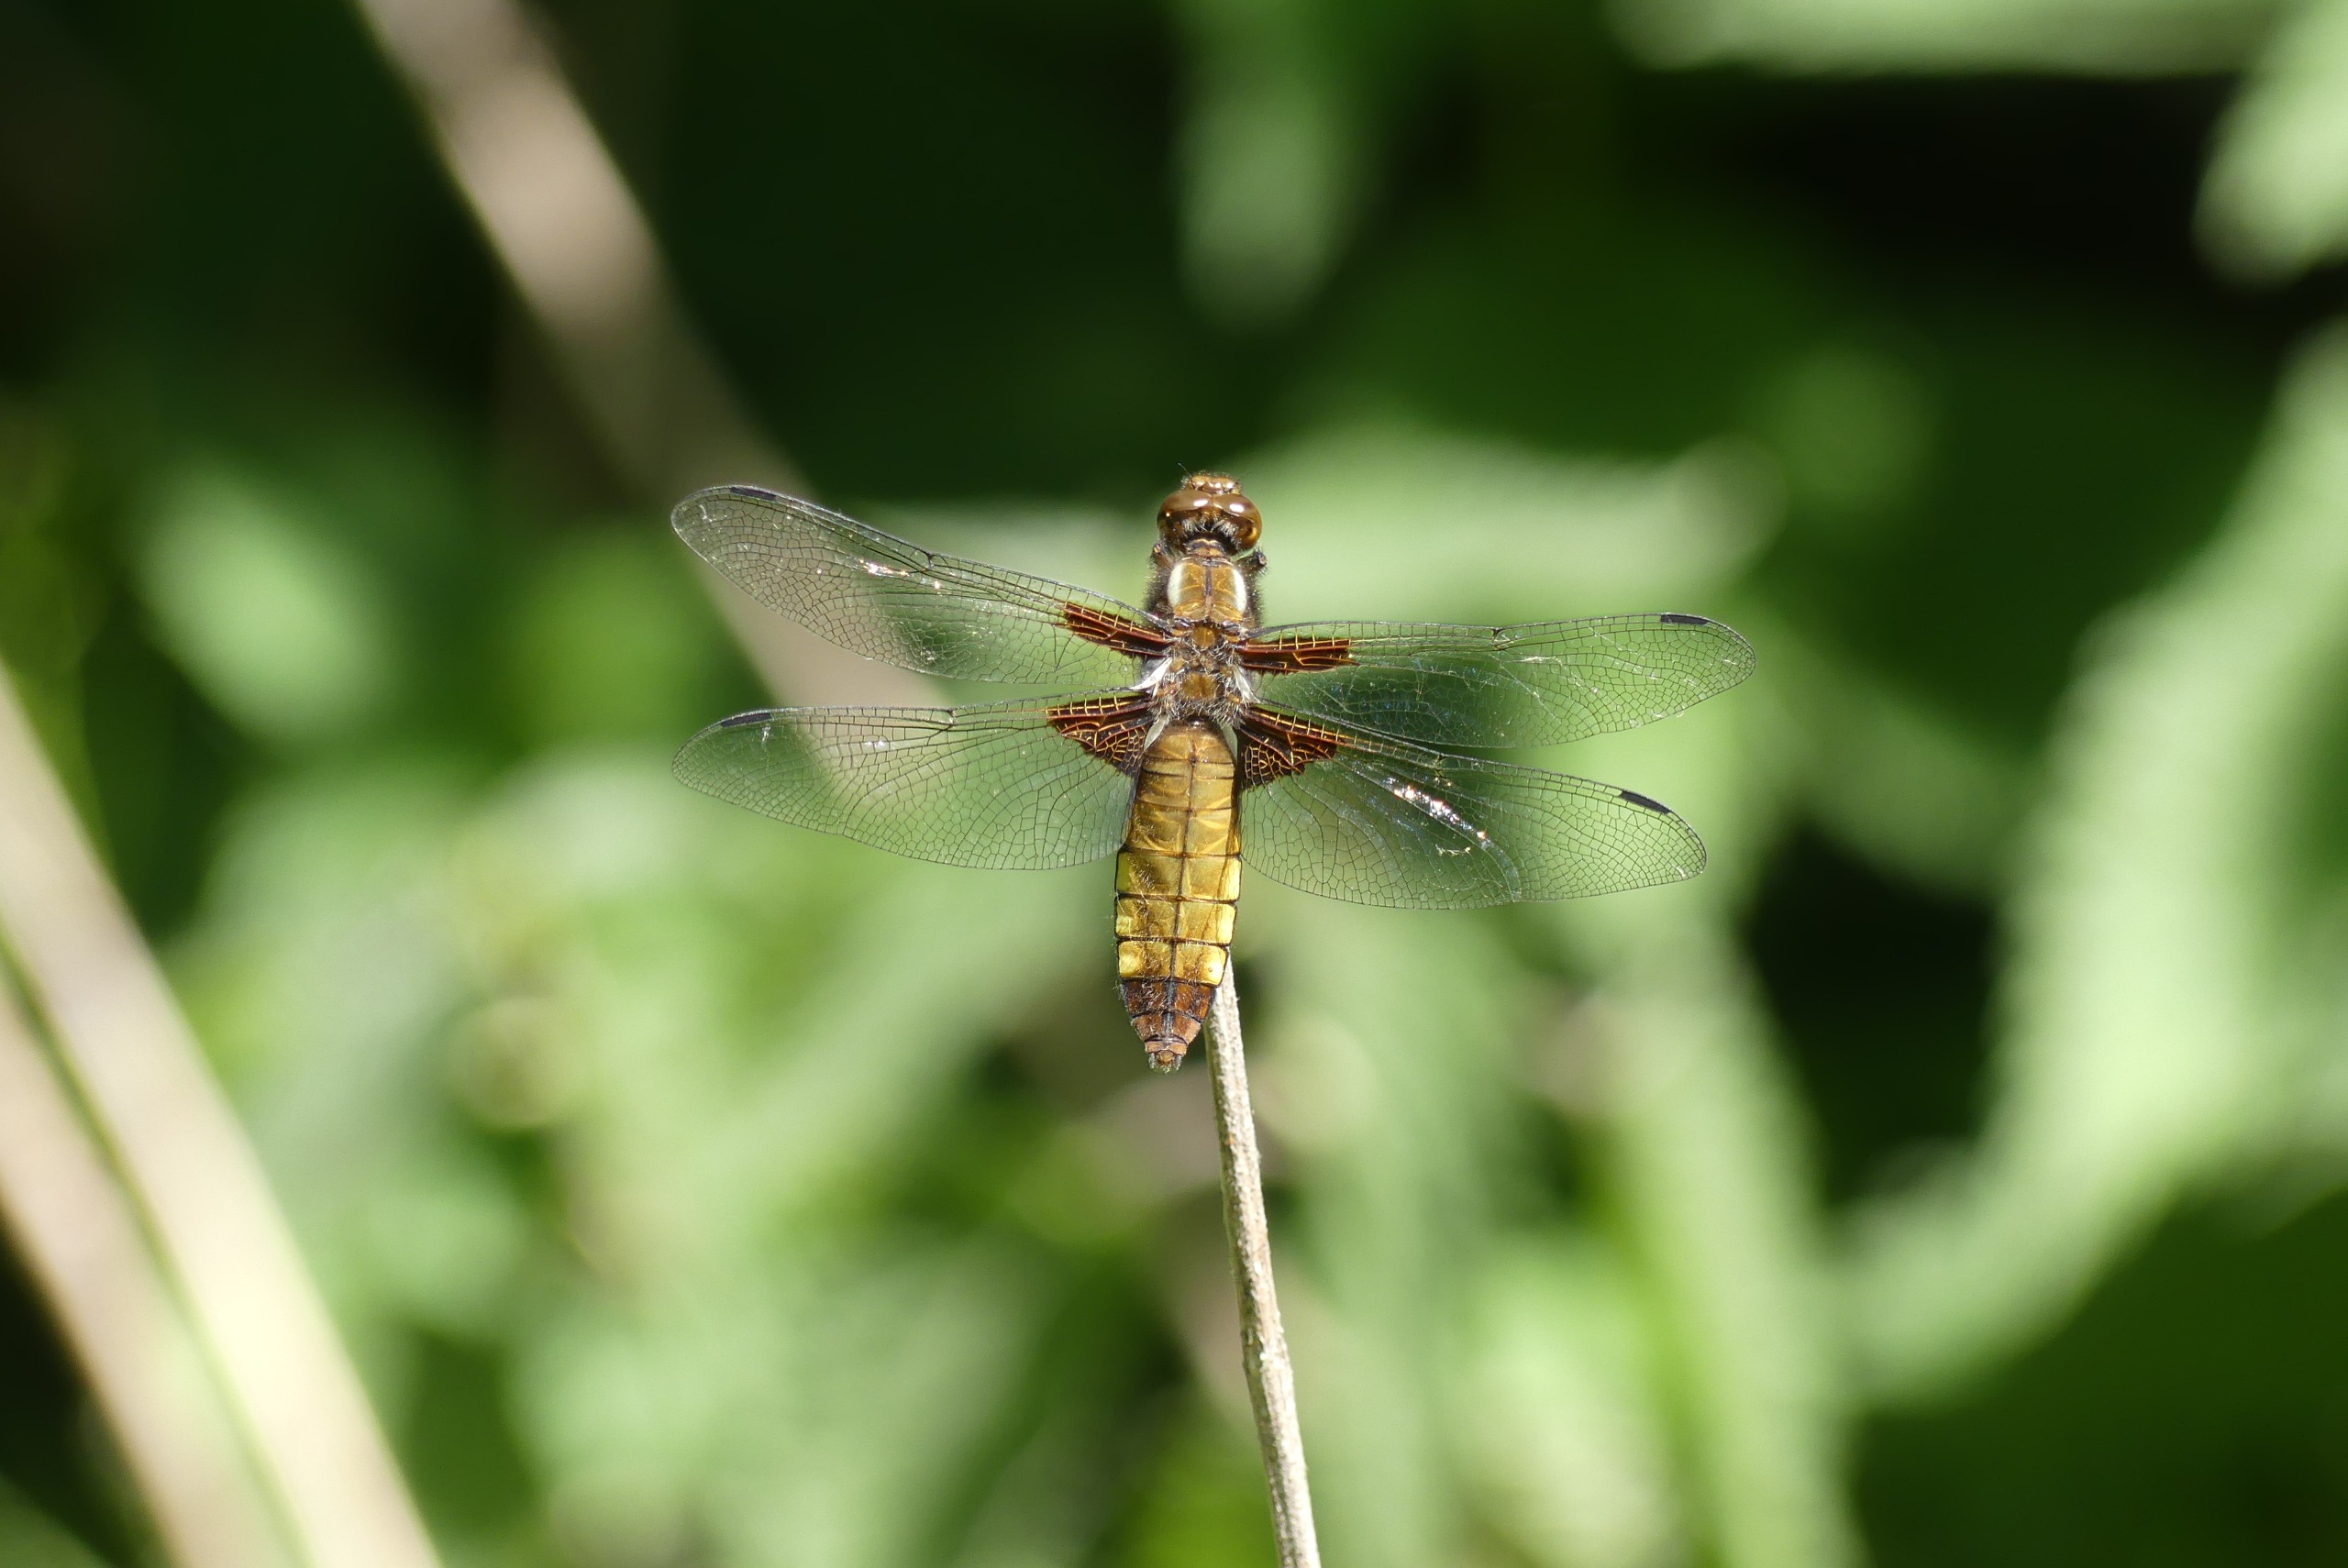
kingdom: Animalia
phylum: Arthropoda
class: Insecta
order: Odonata
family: Libellulidae
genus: Libellula
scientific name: Libellula depressa
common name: Blå libel
